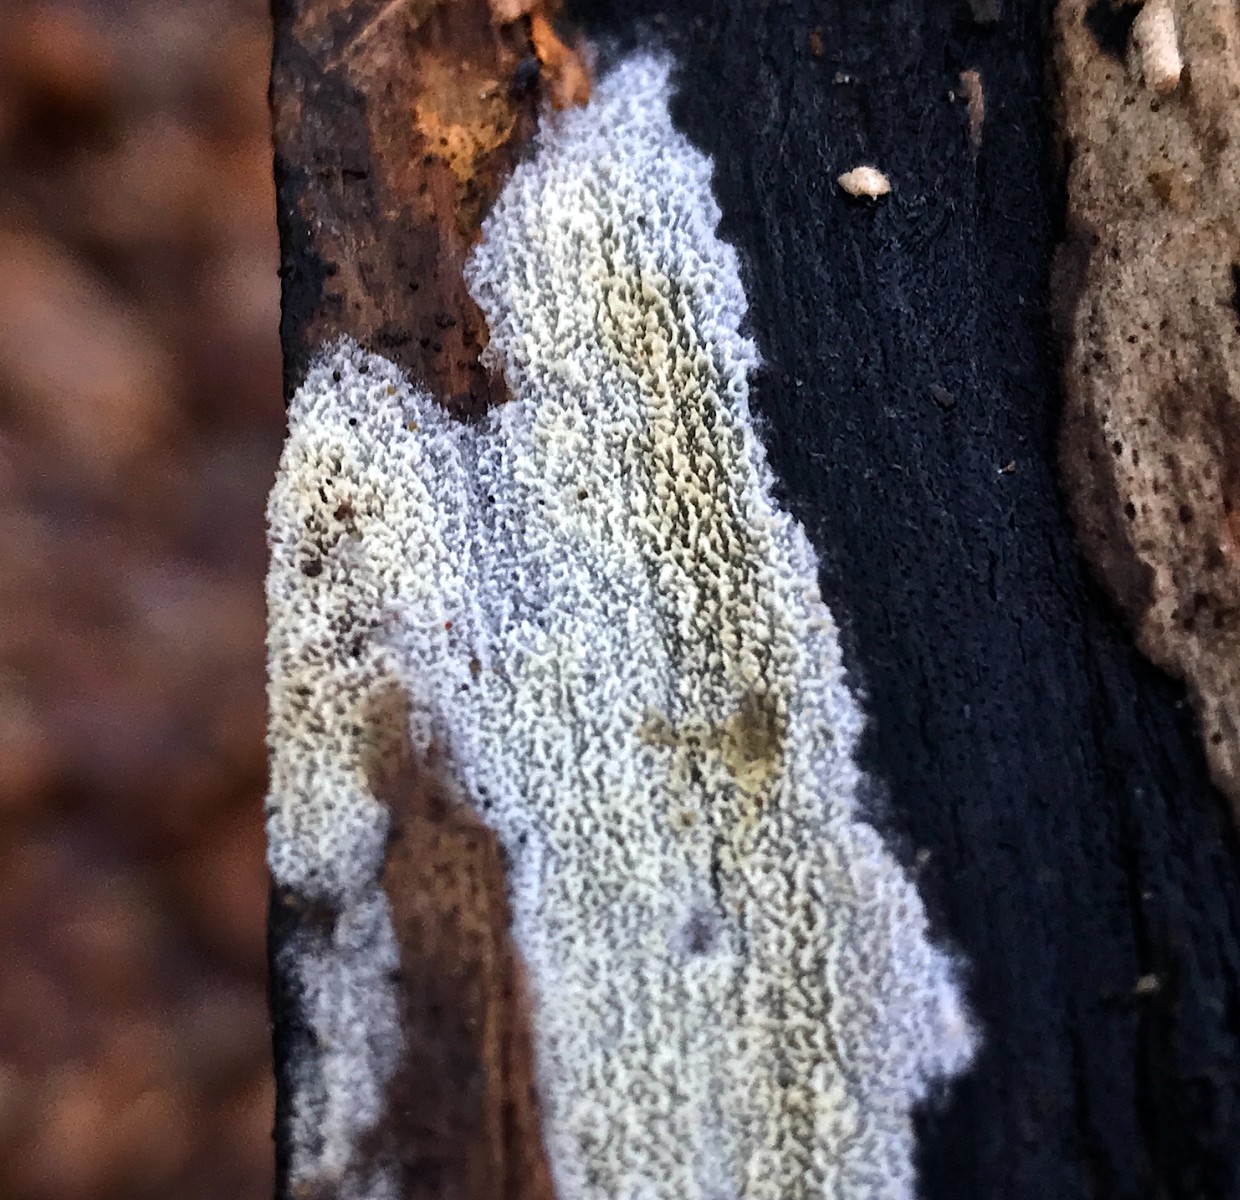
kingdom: Fungi
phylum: Basidiomycota
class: Agaricomycetes
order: Hymenochaetales
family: Schizoporaceae
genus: Xylodon
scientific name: Xylodon radula
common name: grovtandet kalkskind
